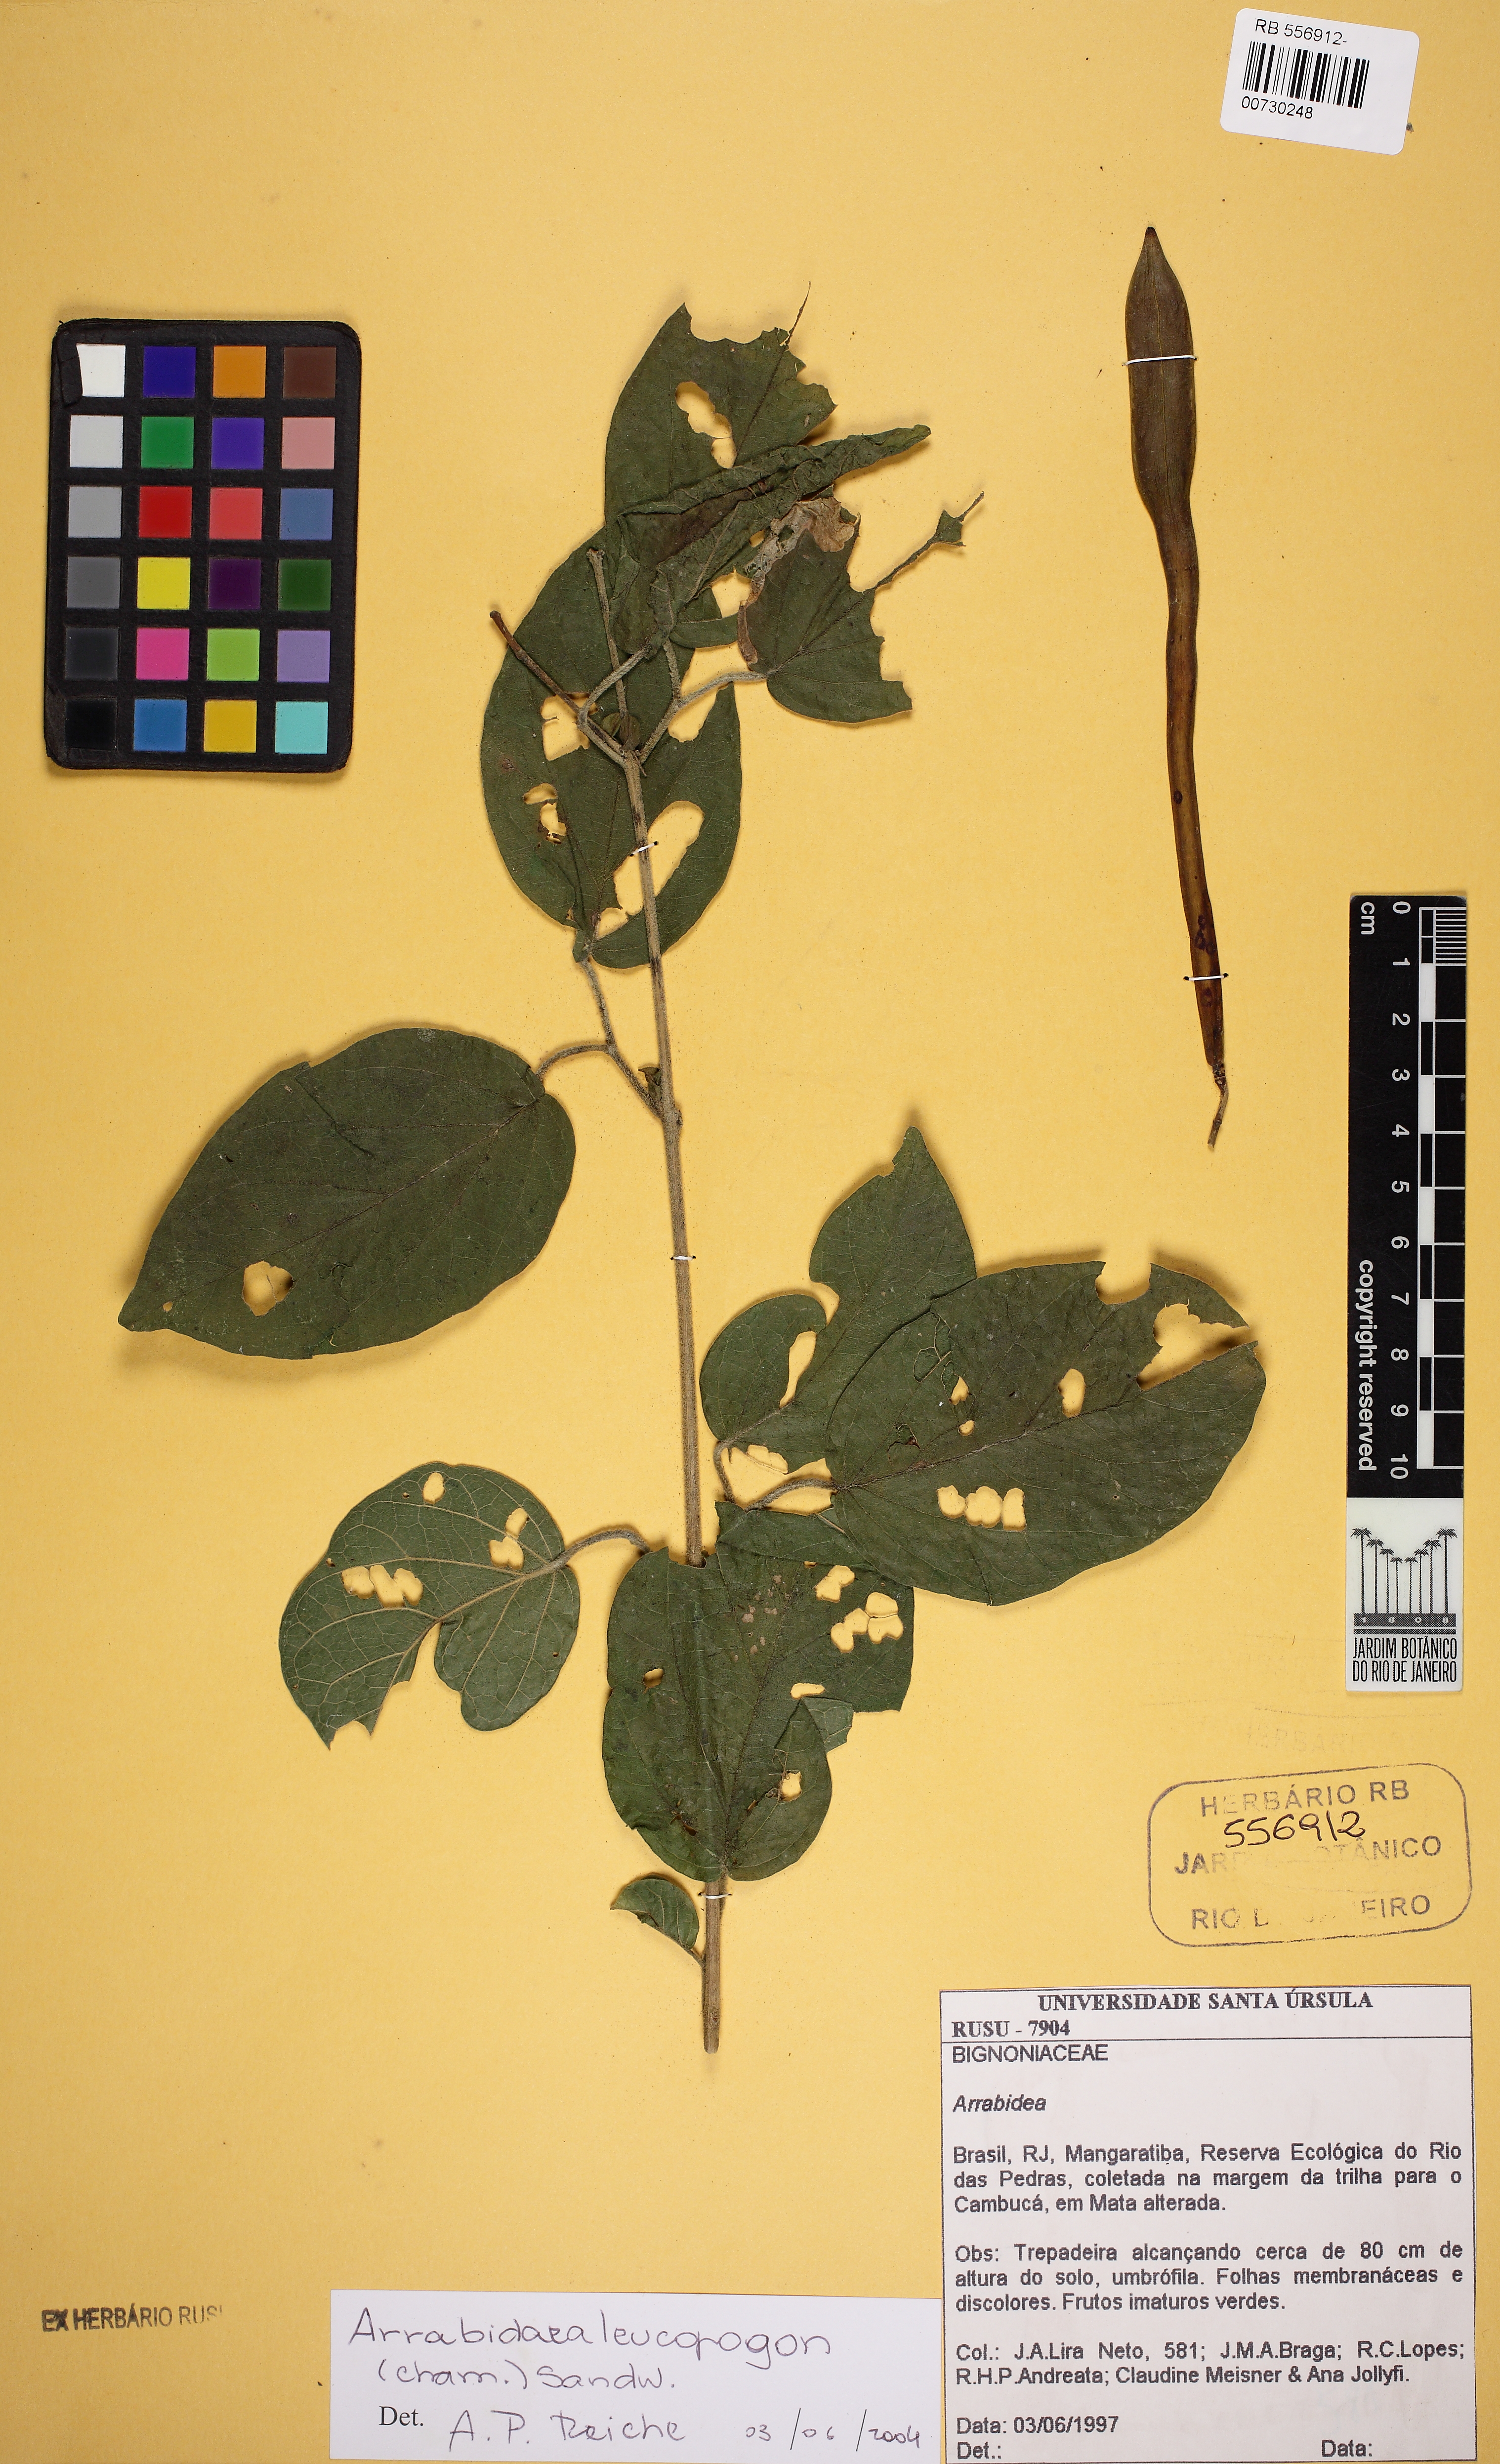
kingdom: Plantae
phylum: Tracheophyta
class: Magnoliopsida
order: Lamiales
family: Bignoniaceae
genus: Fridericia
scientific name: Fridericia leucopogon
